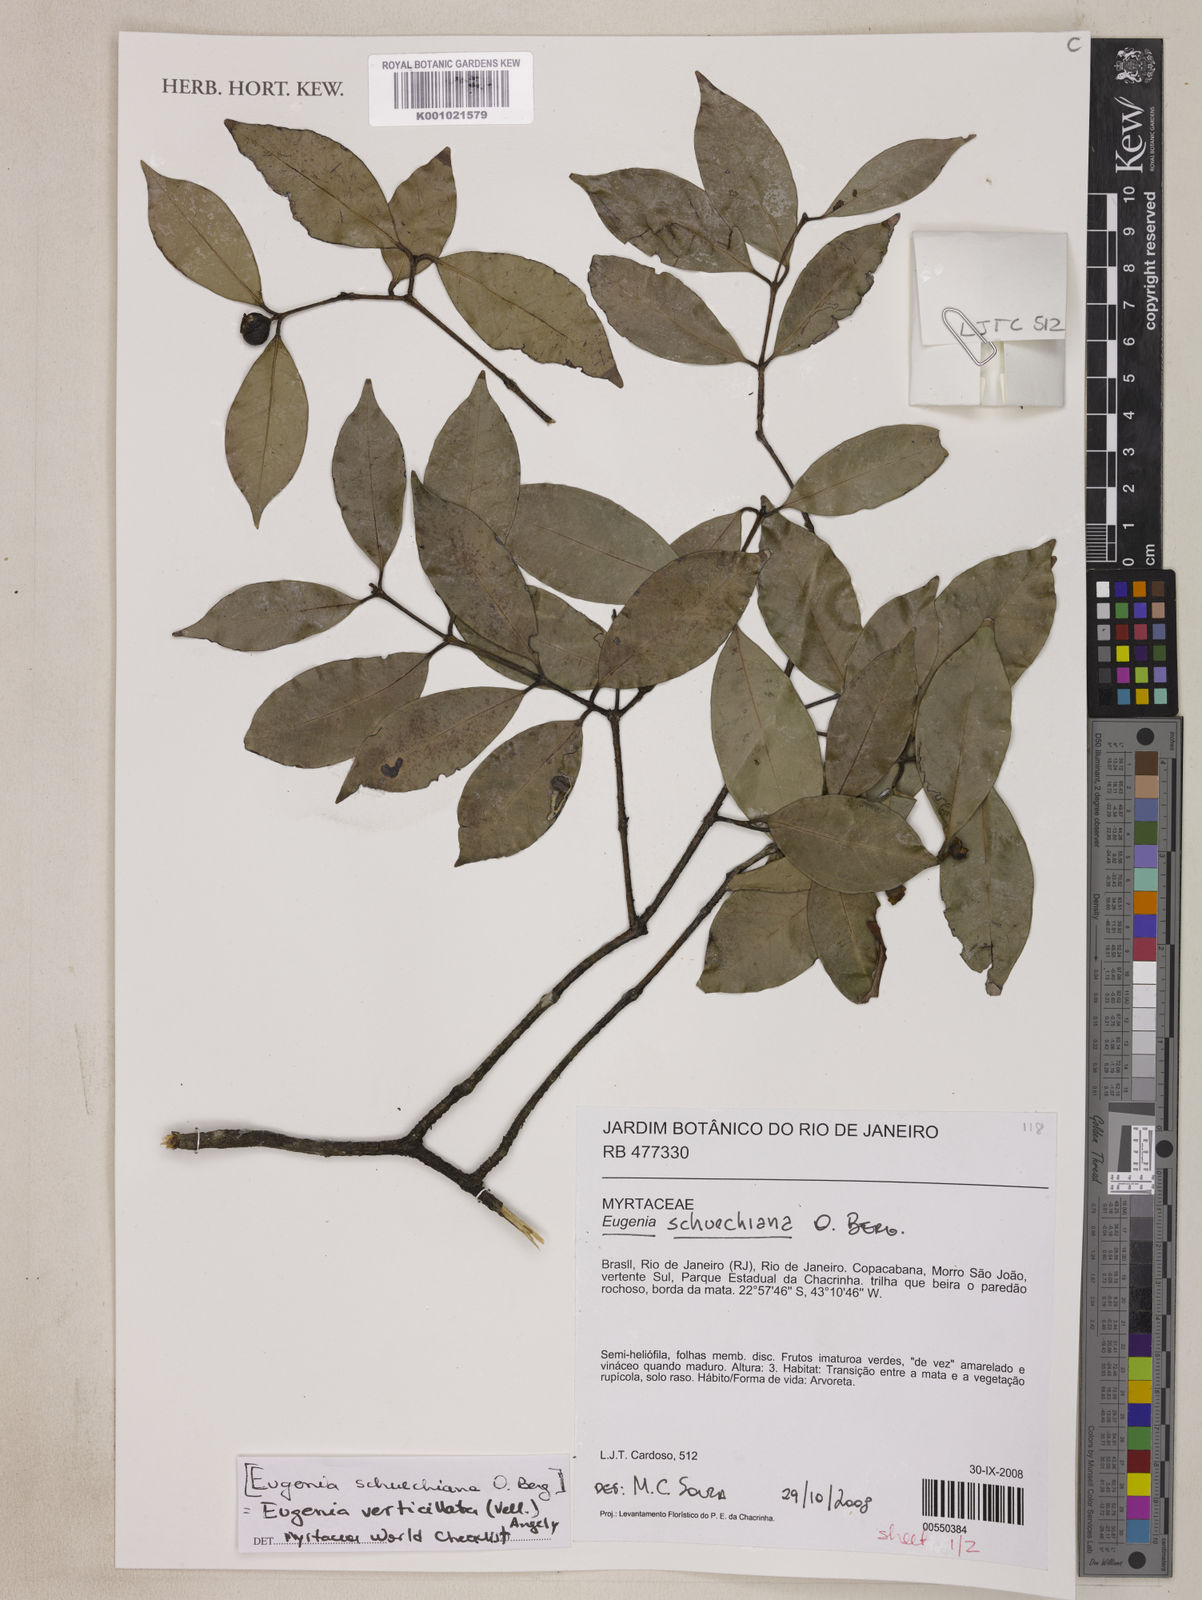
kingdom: Plantae
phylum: Tracheophyta
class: Magnoliopsida
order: Myrtales
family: Myrtaceae
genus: Eugenia
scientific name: Eugenia verticillata
